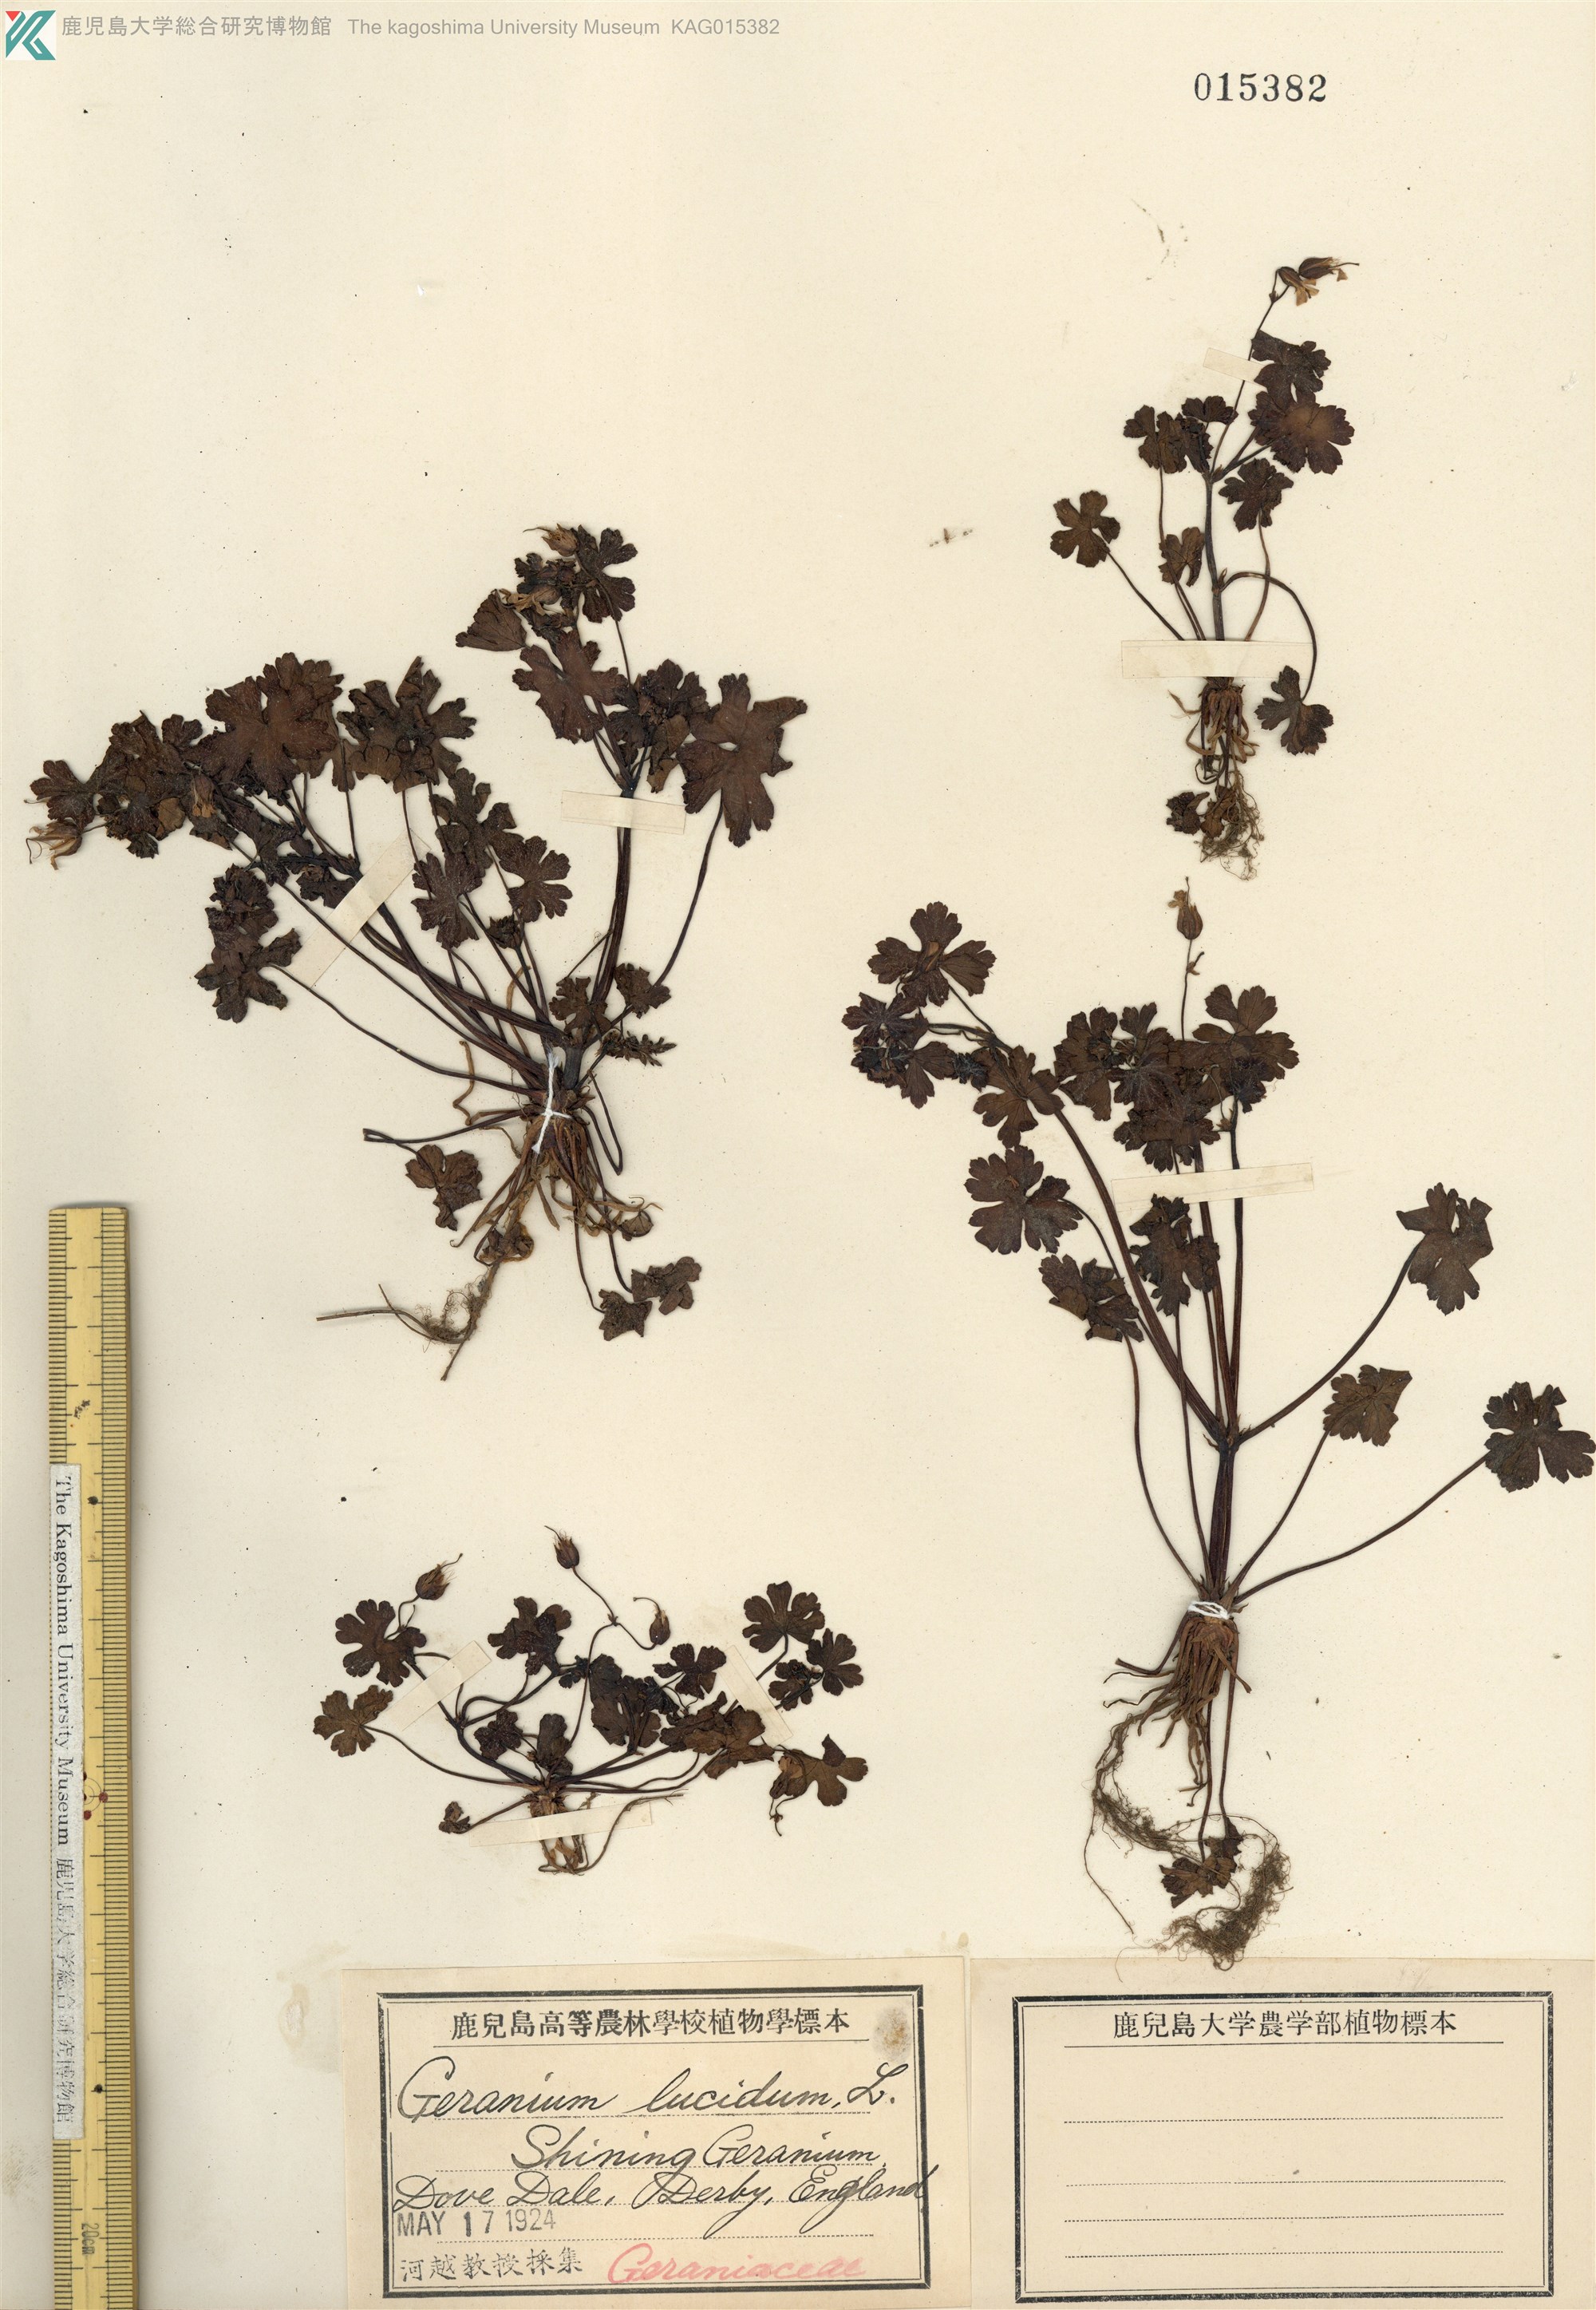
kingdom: Plantae
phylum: Tracheophyta
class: Magnoliopsida
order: Geraniales
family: Geraniaceae
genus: Geranium
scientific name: Geranium lucidum
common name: Shining crane's-bill
